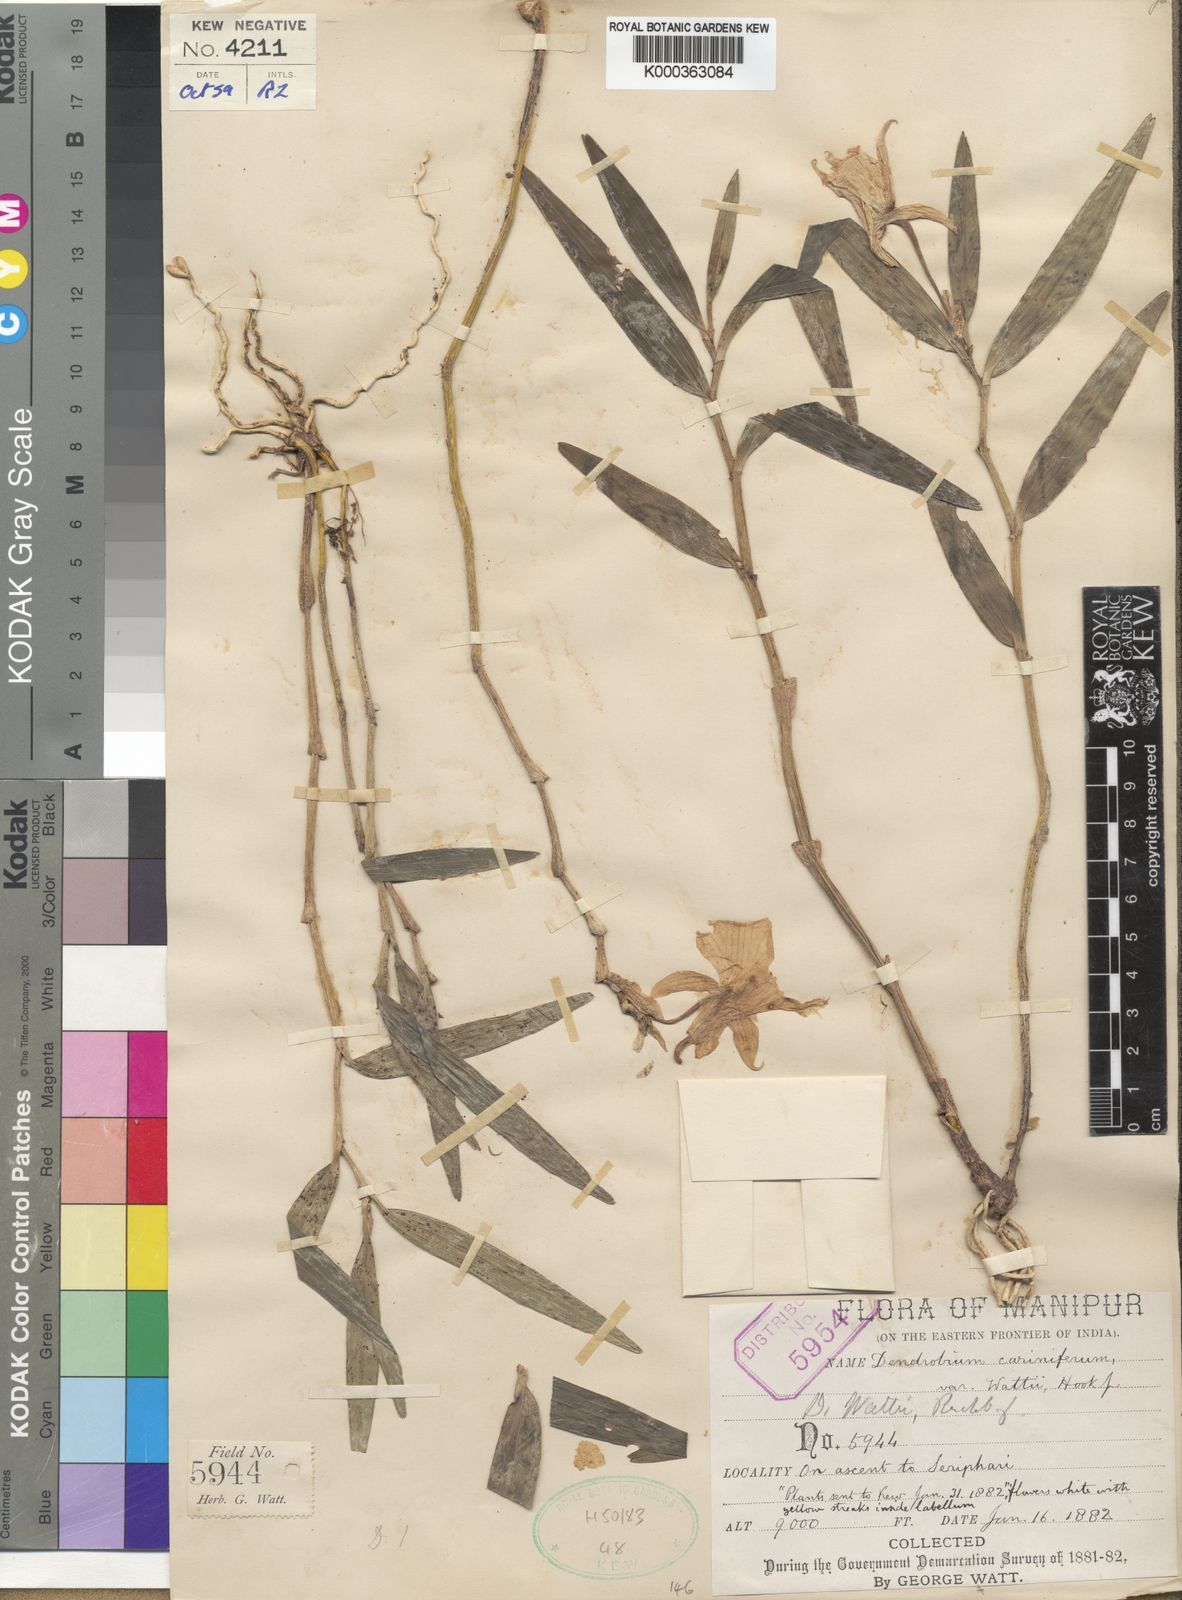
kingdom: Plantae
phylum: Tracheophyta
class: Liliopsida
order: Asparagales
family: Orchidaceae
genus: Dendrobium
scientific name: Dendrobium wattii
